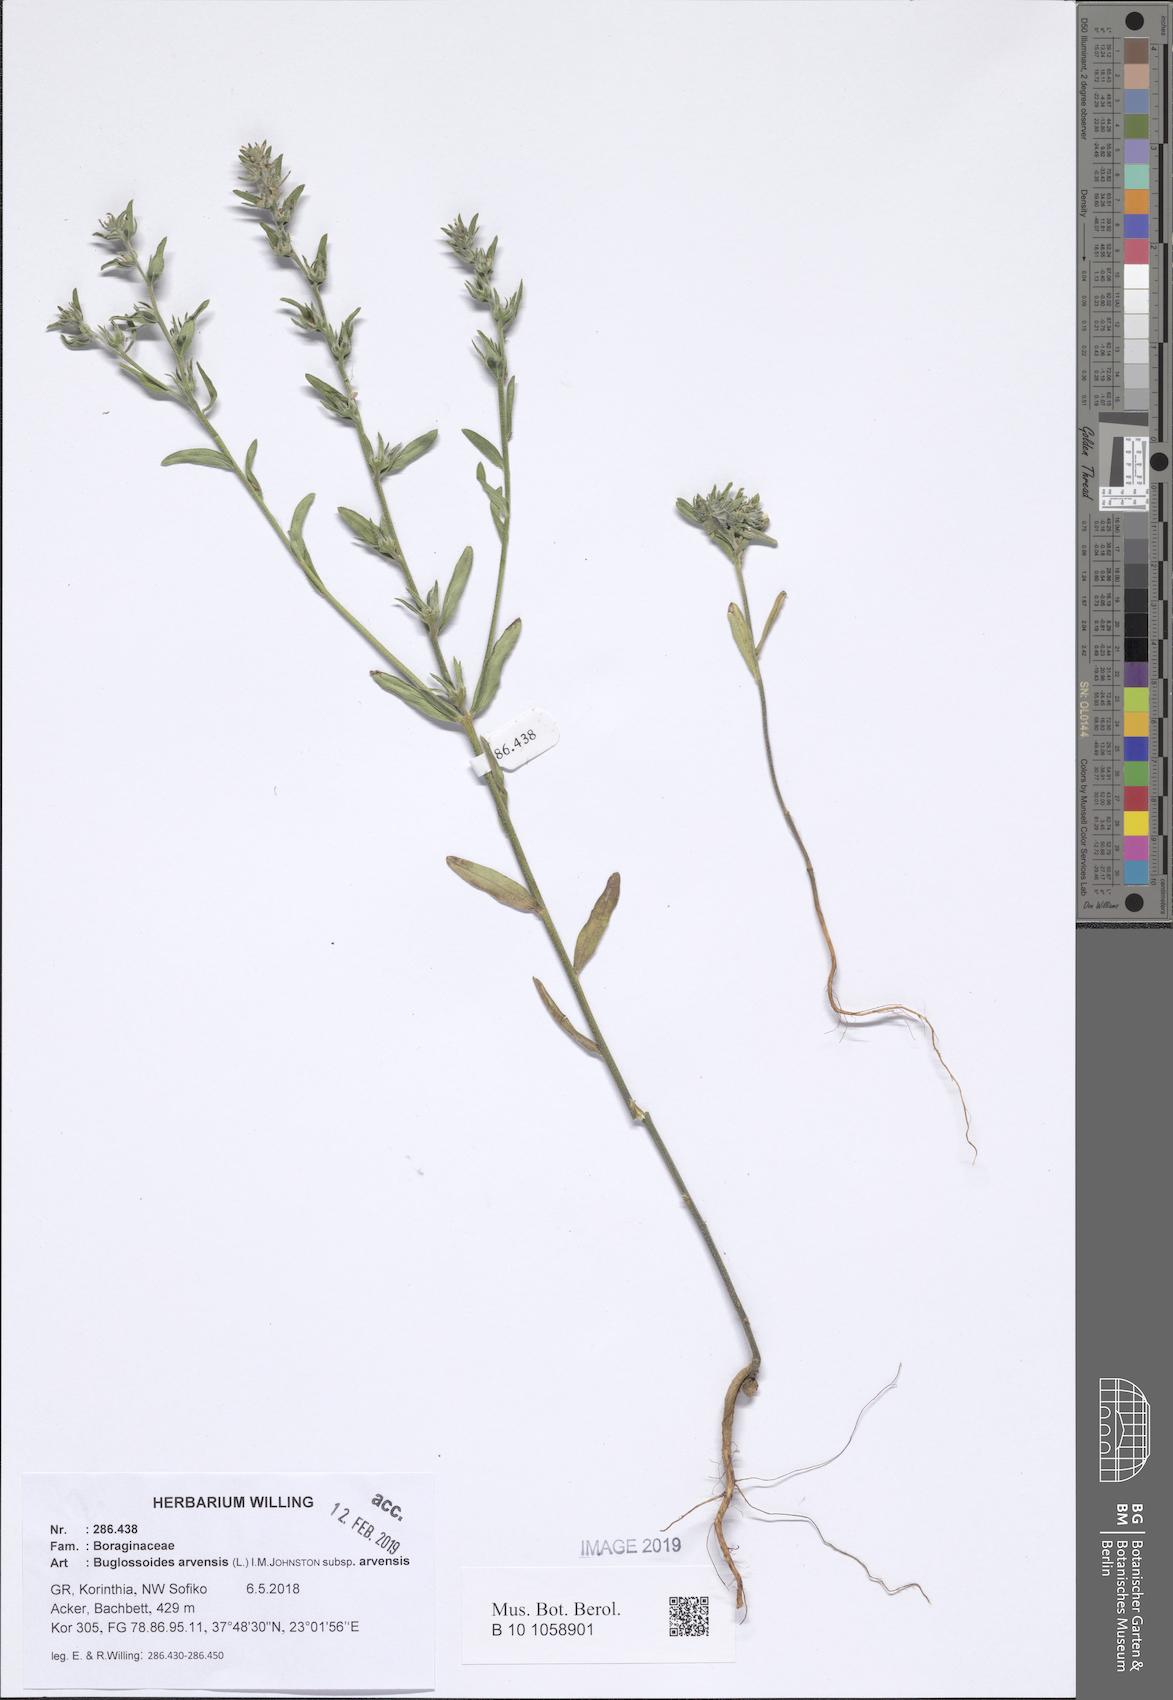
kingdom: Plantae
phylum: Tracheophyta
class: Magnoliopsida
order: Boraginales
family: Boraginaceae
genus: Buglossoides
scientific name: Buglossoides arvensis
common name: Corn gromwell
